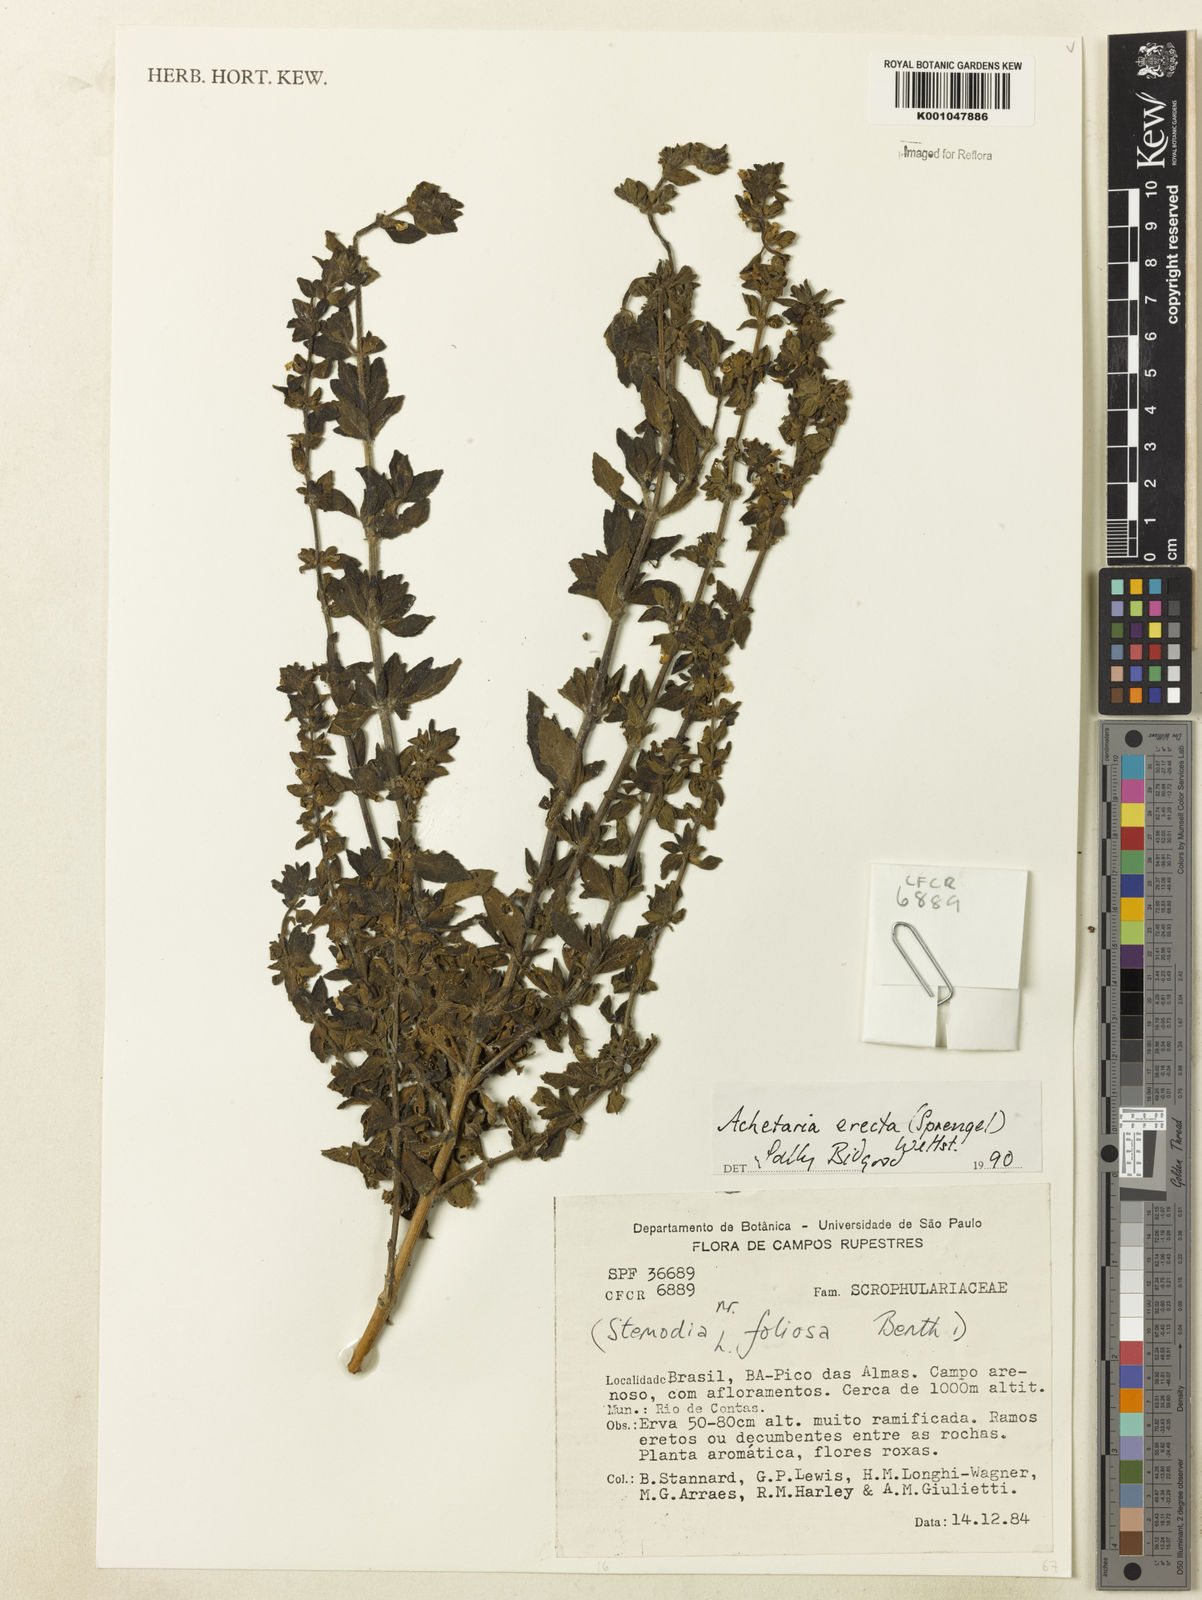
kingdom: Plantae
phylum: Tracheophyta
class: Magnoliopsida
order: Lamiales
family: Plantaginaceae
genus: Matourea
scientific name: Matourea erecta
